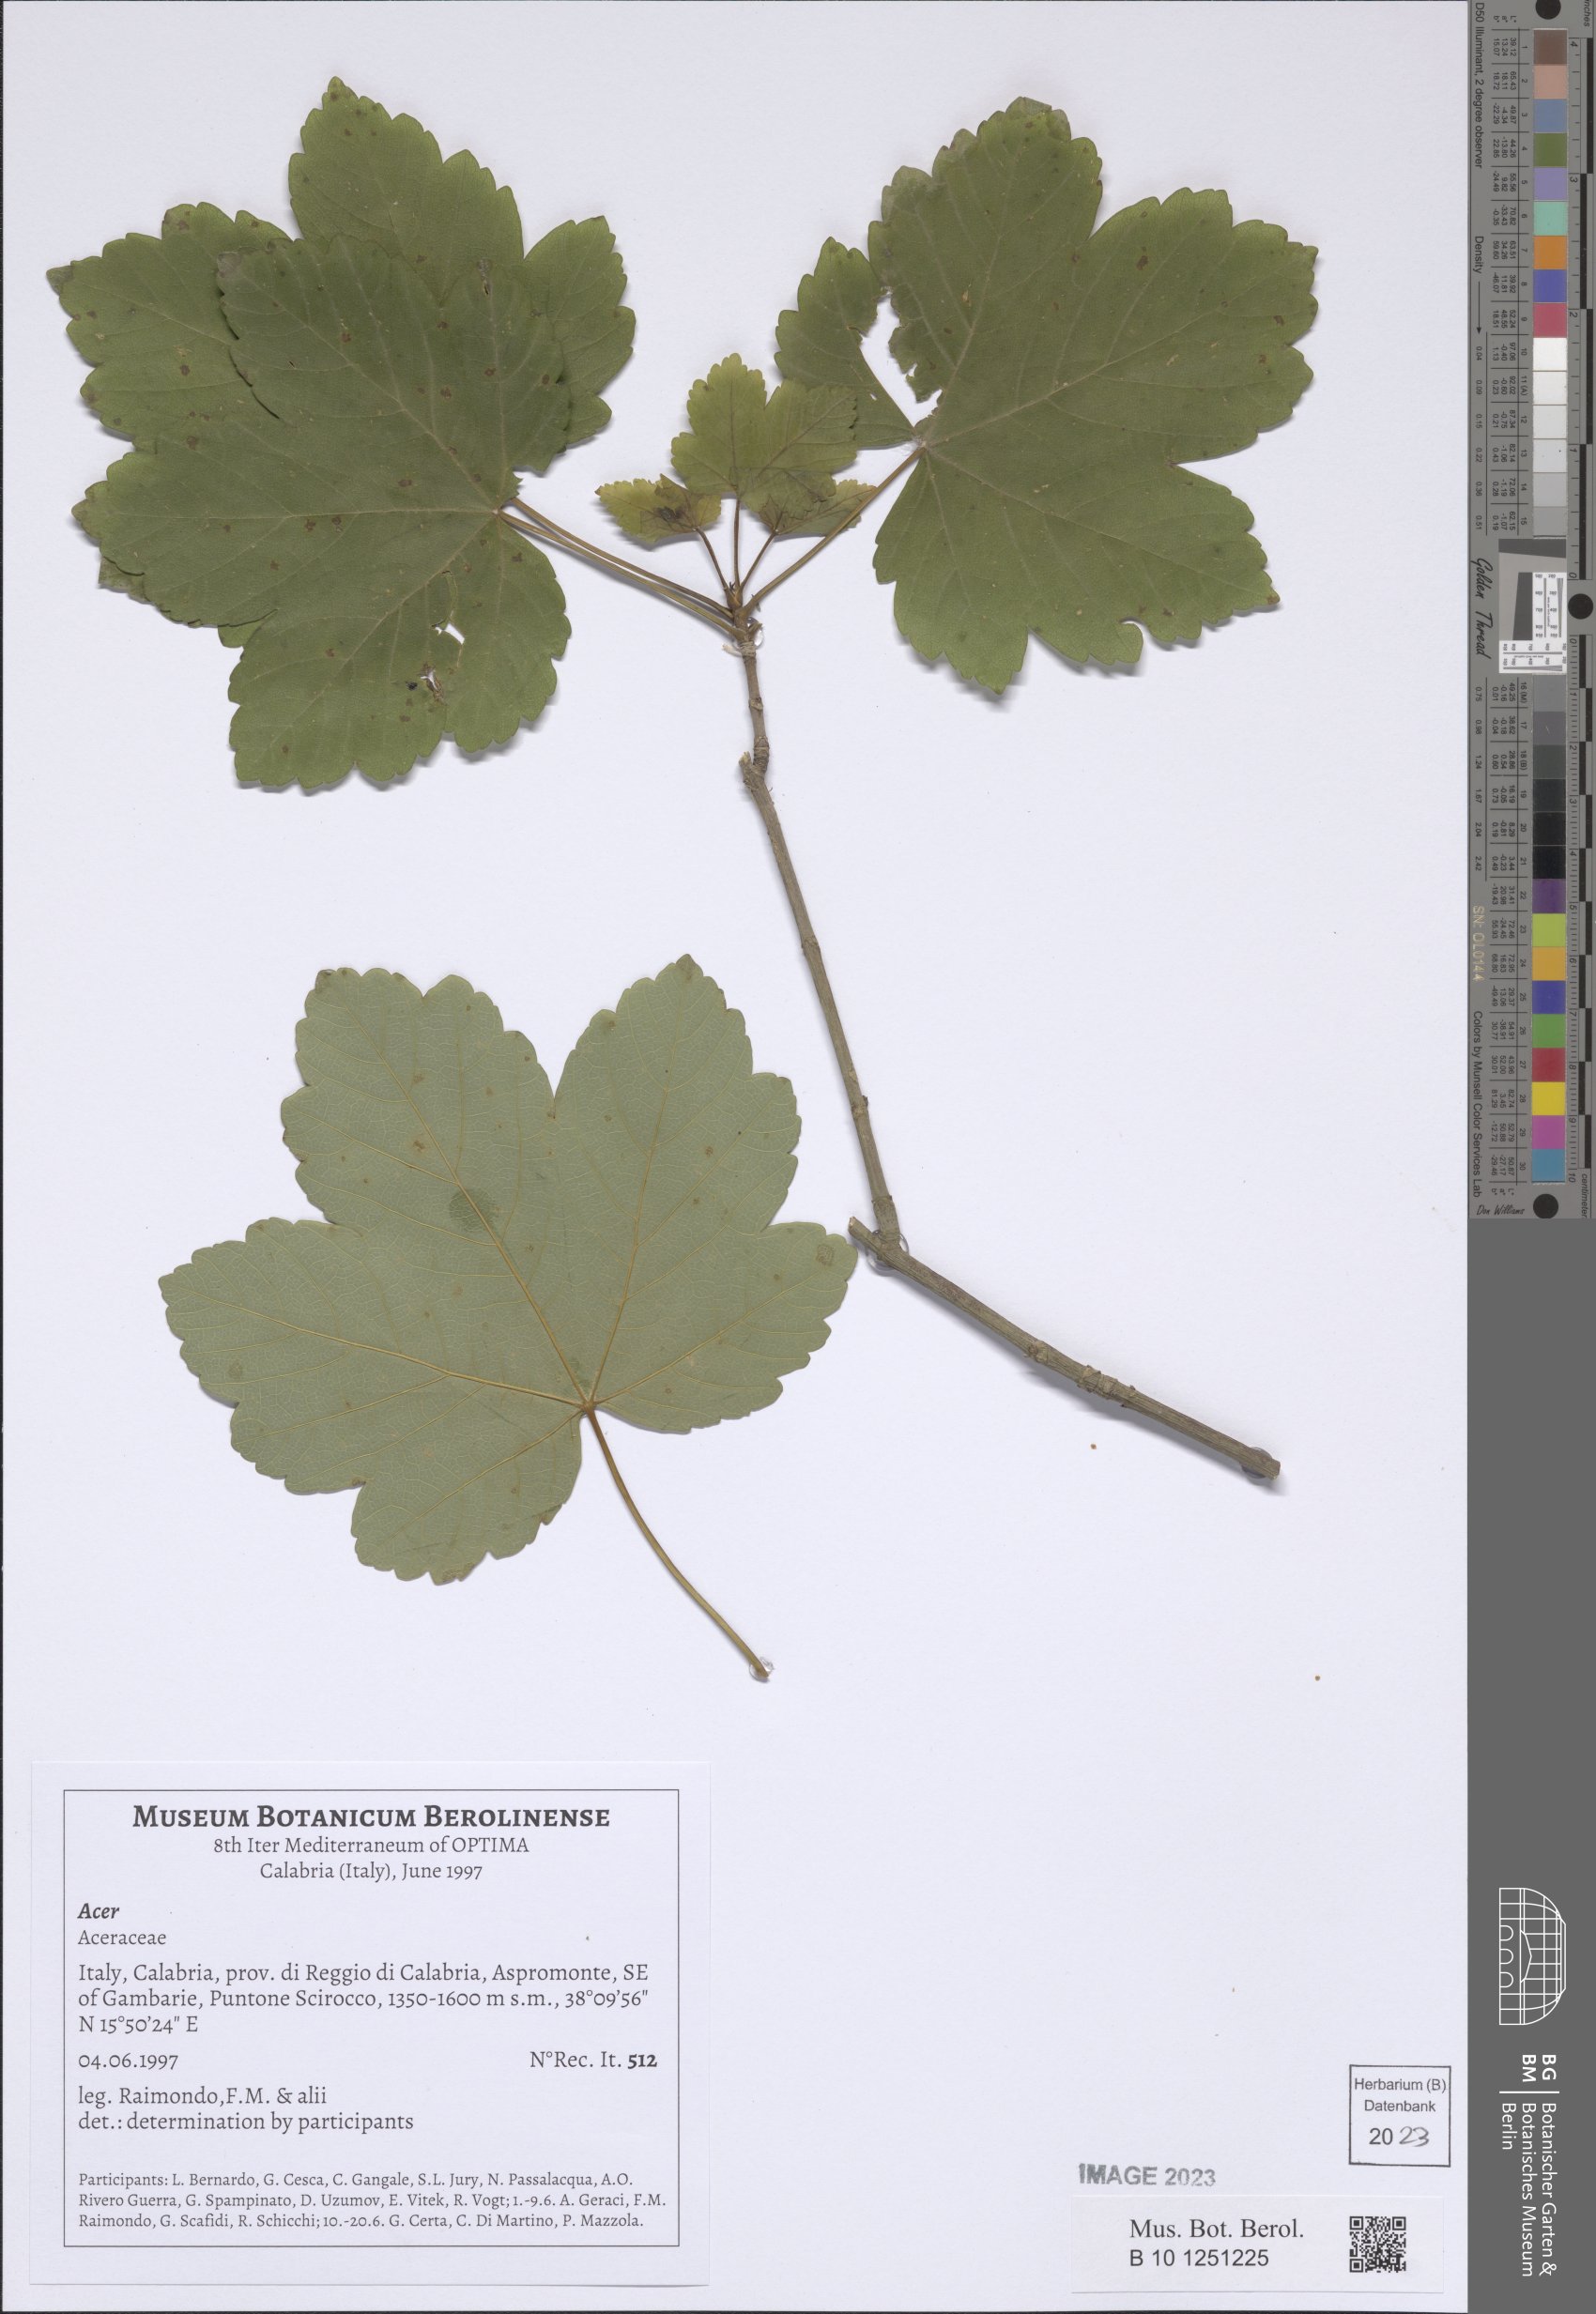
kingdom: Plantae
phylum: Tracheophyta
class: Magnoliopsida
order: Sapindales
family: Sapindaceae
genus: Acer
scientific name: Acer
